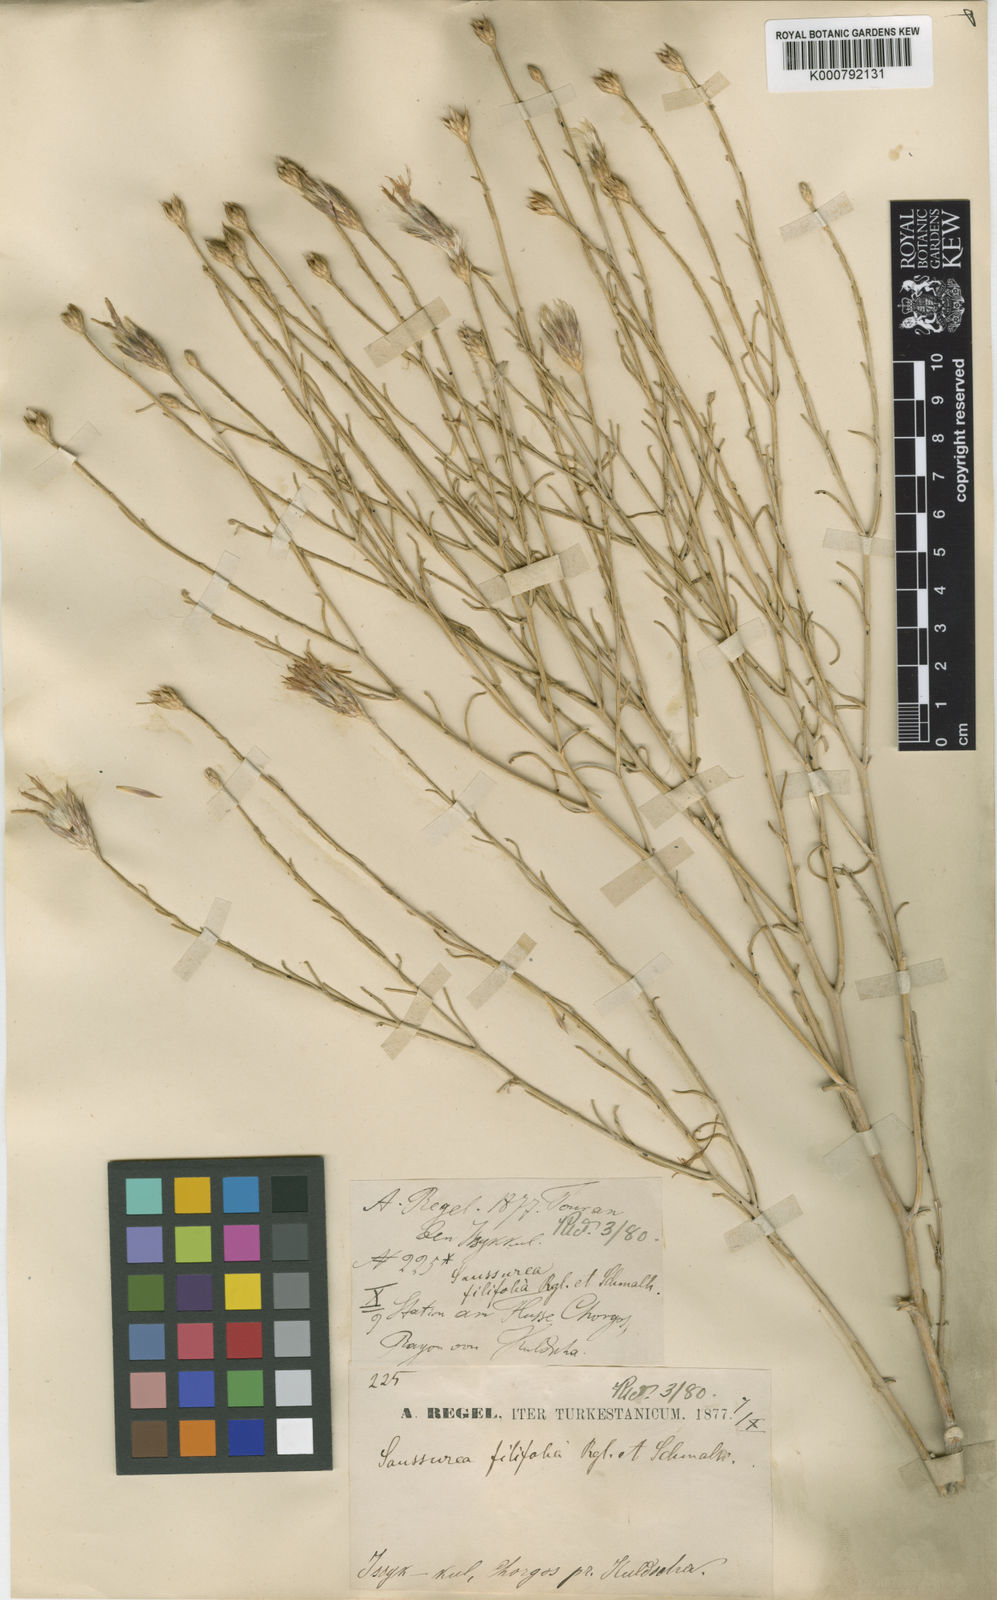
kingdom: Plantae
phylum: Tracheophyta
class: Magnoliopsida
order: Asterales
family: Asteraceae
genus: Jurinea
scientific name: Jurinea filifolia
